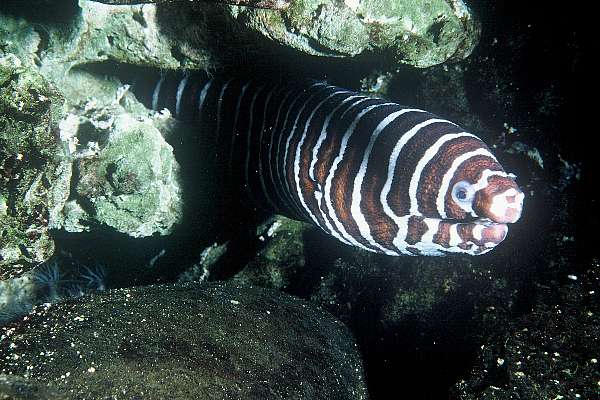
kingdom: Animalia
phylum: Chordata
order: Anguilliformes
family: Muraenidae
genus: Gymnomuraena
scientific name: Gymnomuraena zebra
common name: Zebra moray
